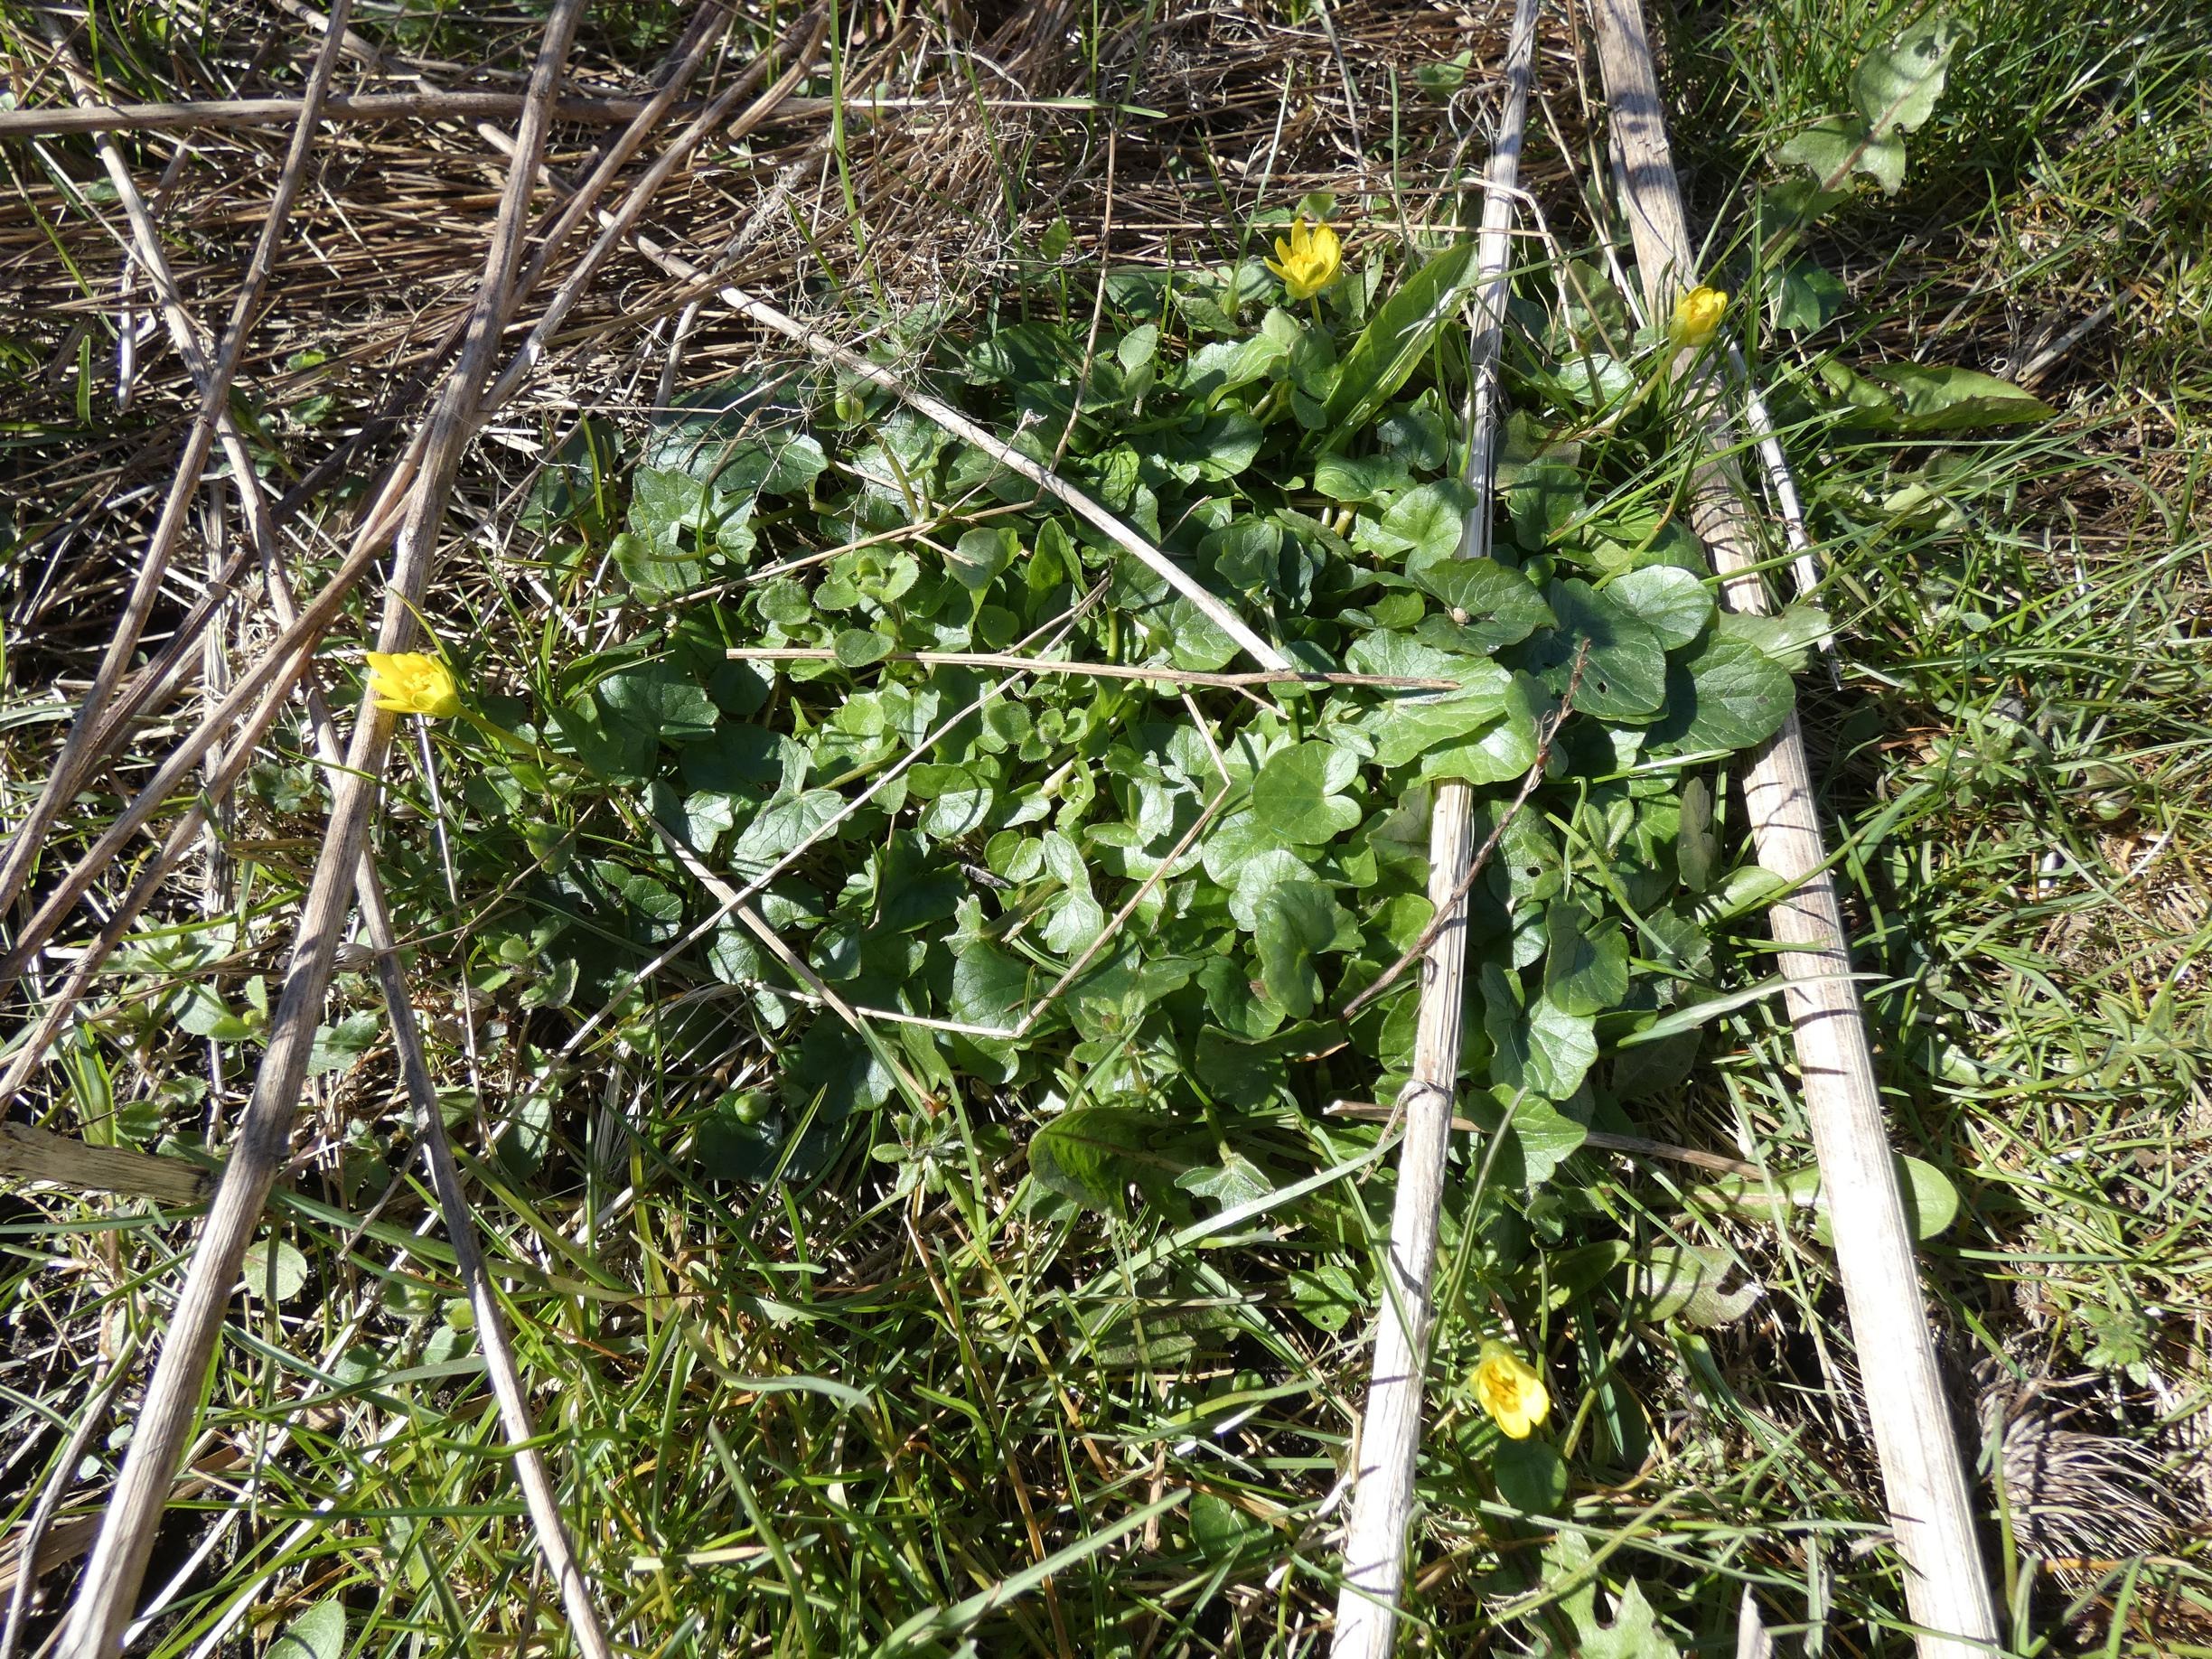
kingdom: Plantae
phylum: Tracheophyta
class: Magnoliopsida
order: Ranunculales
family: Ranunculaceae
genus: Ficaria
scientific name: Ficaria verna
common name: Vorterod
